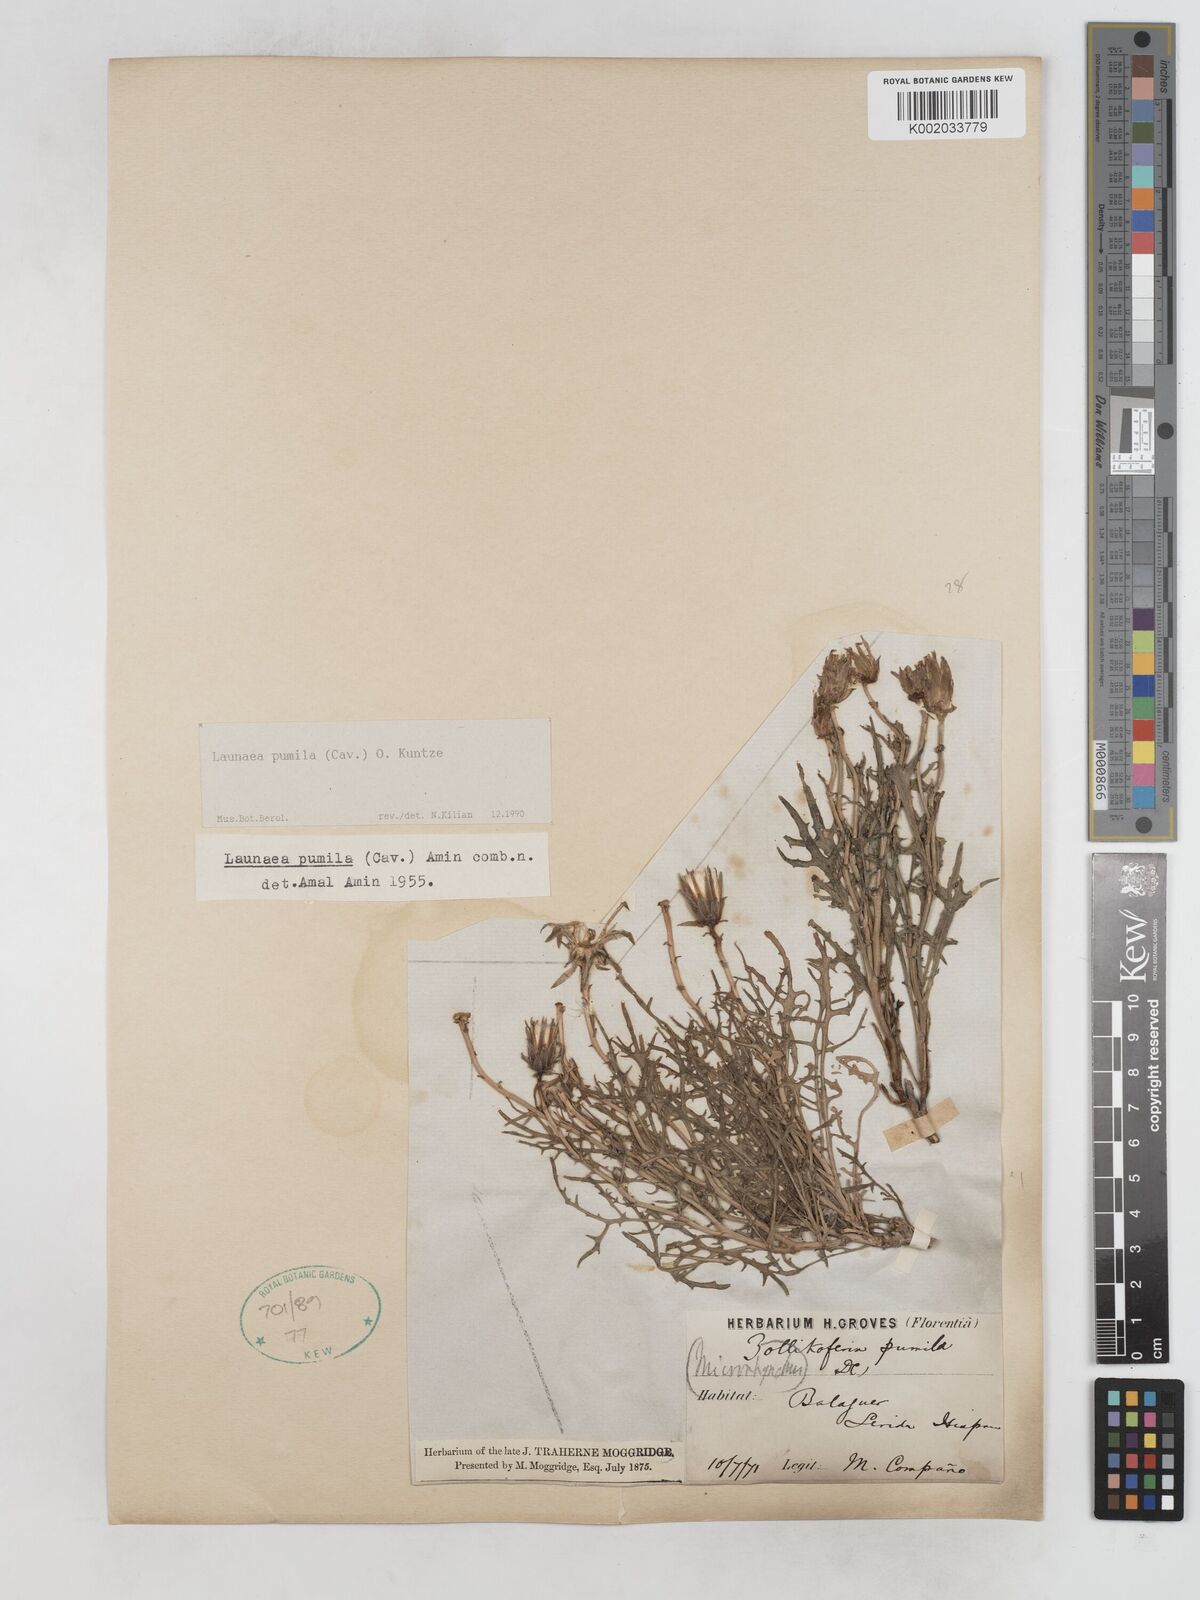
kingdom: Plantae
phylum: Tracheophyta
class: Magnoliopsida
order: Asterales
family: Asteraceae
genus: Launaea
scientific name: Launaea pumila
